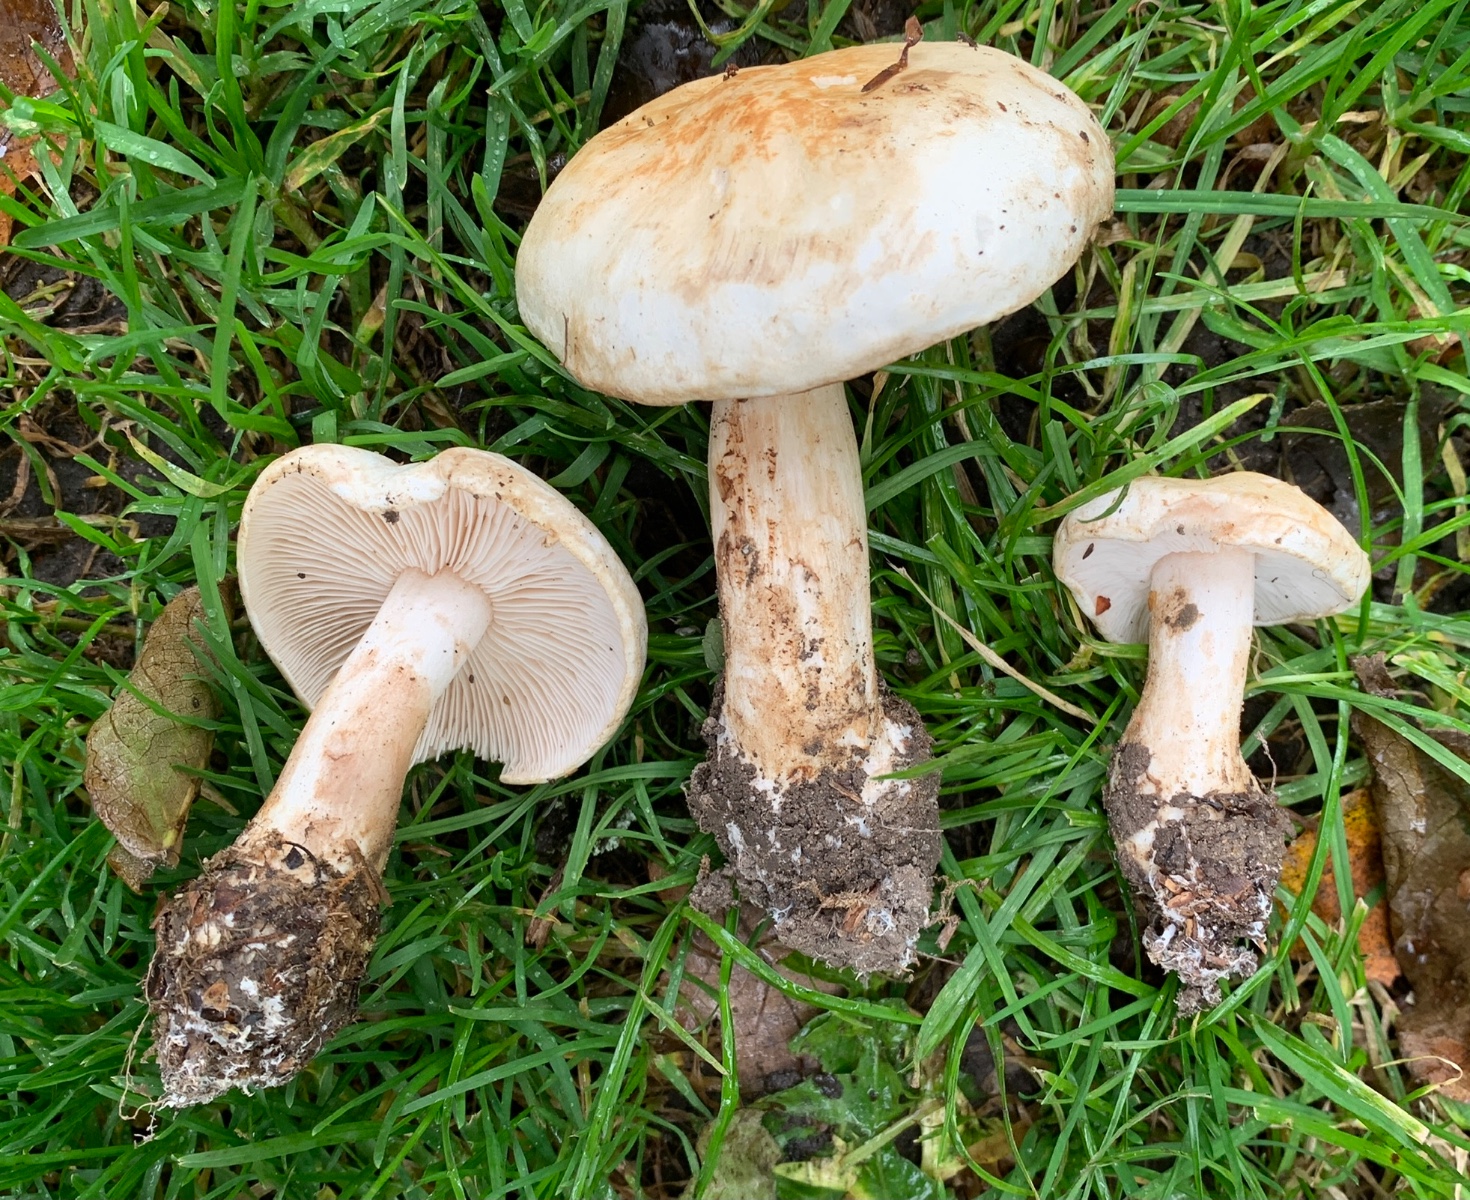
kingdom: Fungi
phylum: Basidiomycota
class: Agaricomycetes
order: Agaricales
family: Tricholomataceae
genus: Tricholoma
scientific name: Tricholoma stiparophyllum
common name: hvid ridderhat
